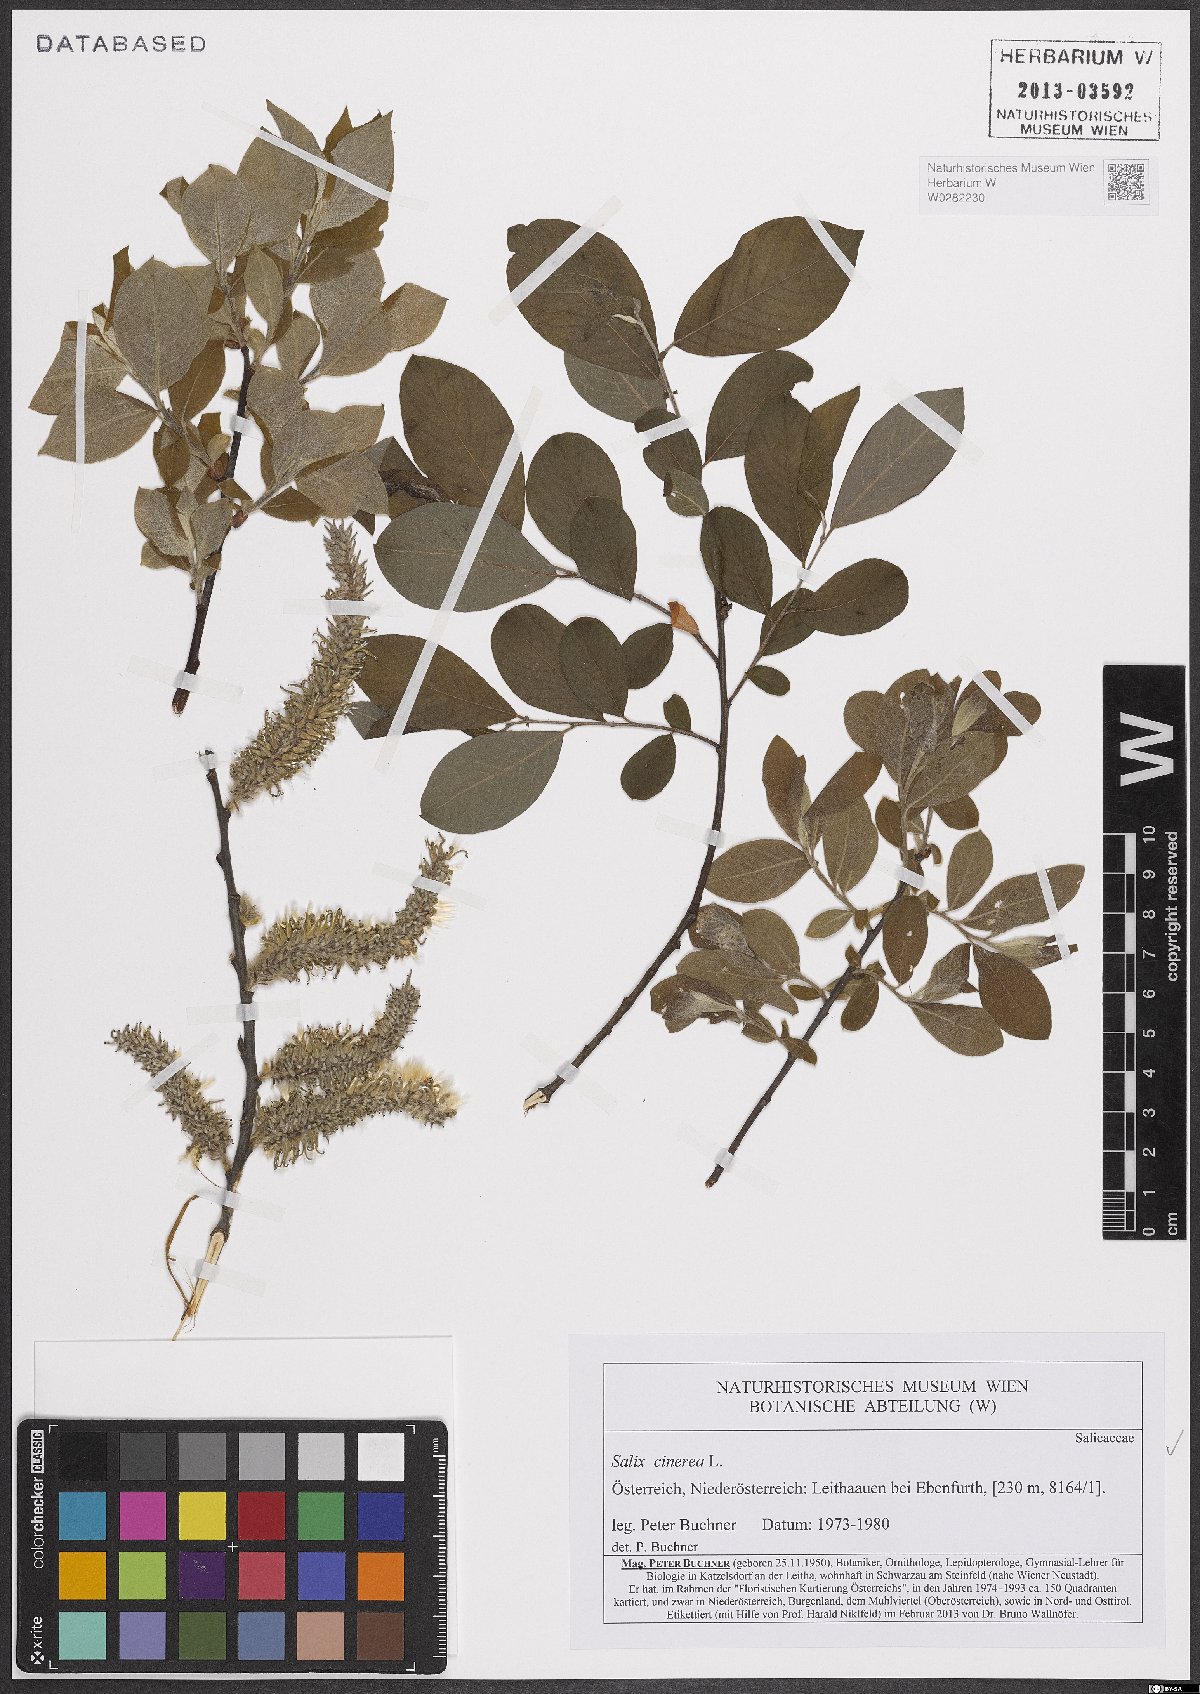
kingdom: Plantae
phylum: Tracheophyta
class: Magnoliopsida
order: Malpighiales
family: Salicaceae
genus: Salix
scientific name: Salix cinerea
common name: Common sallow
